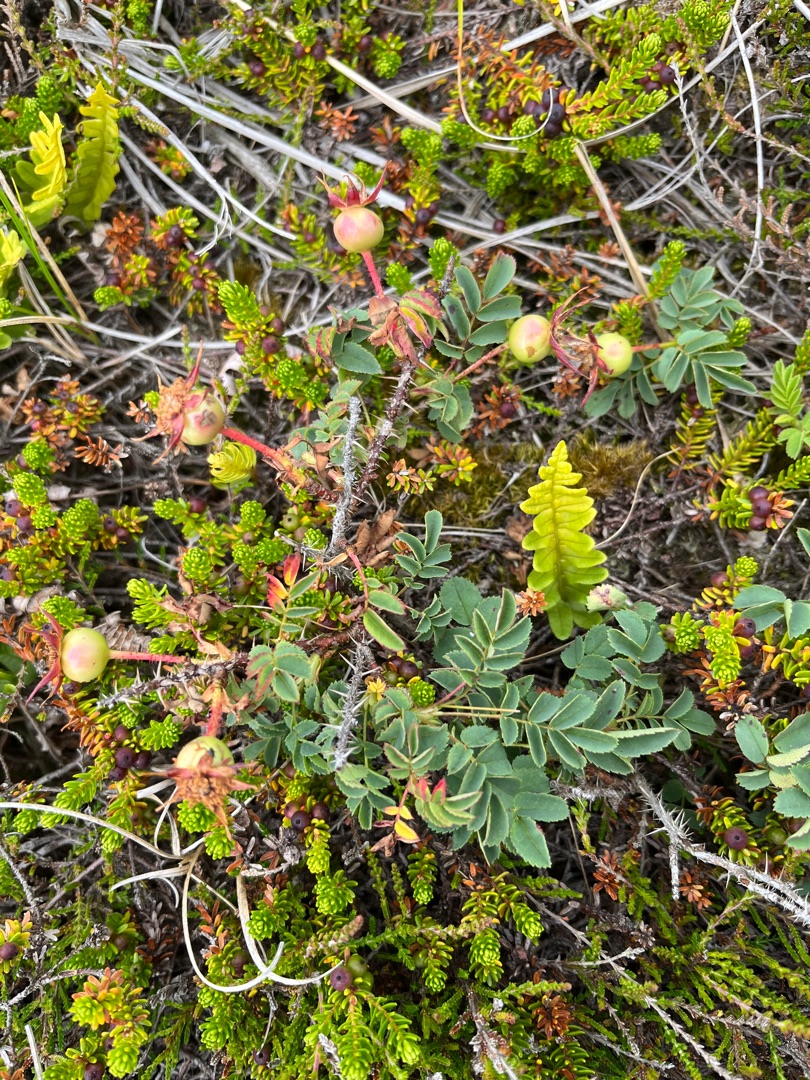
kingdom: Plantae
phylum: Tracheophyta
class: Magnoliopsida
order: Rosales
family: Rosaceae
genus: Rosa
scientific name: Rosa spinosissima
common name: Klit-rose
